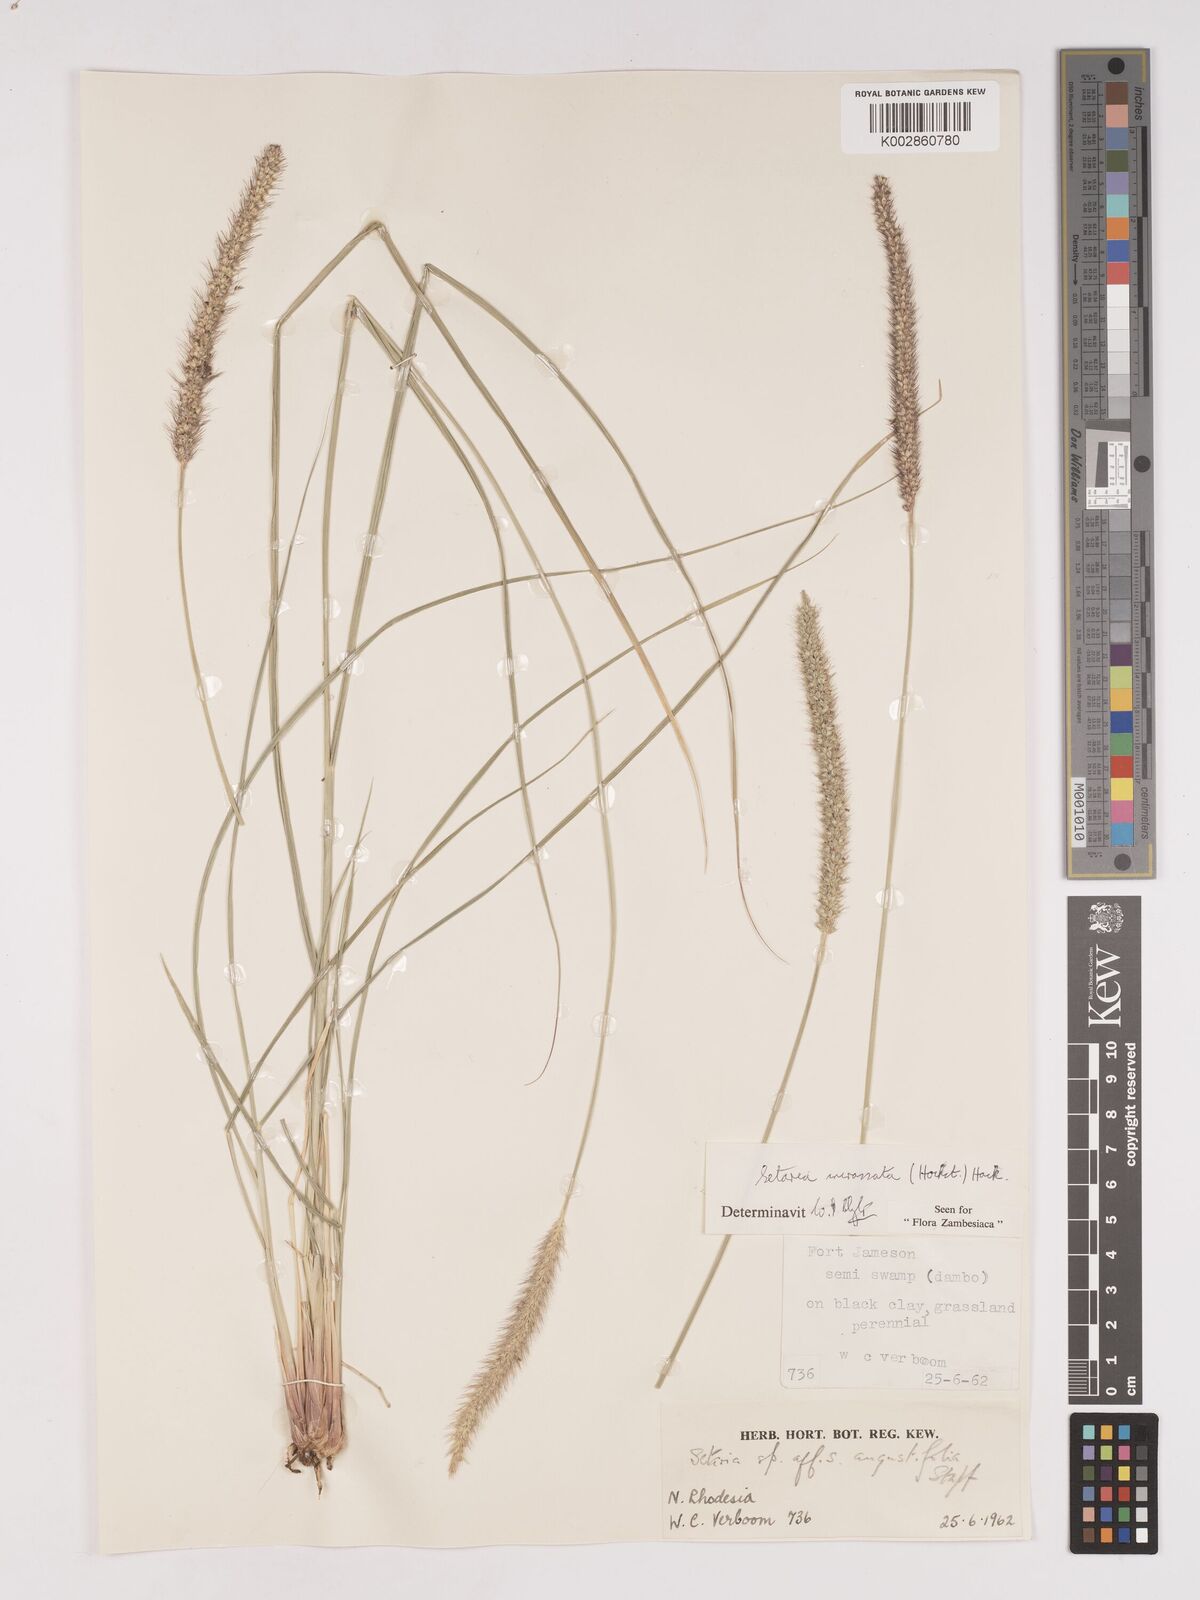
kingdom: Plantae
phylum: Tracheophyta
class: Liliopsida
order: Poales
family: Poaceae
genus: Setaria
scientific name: Setaria incrassata
